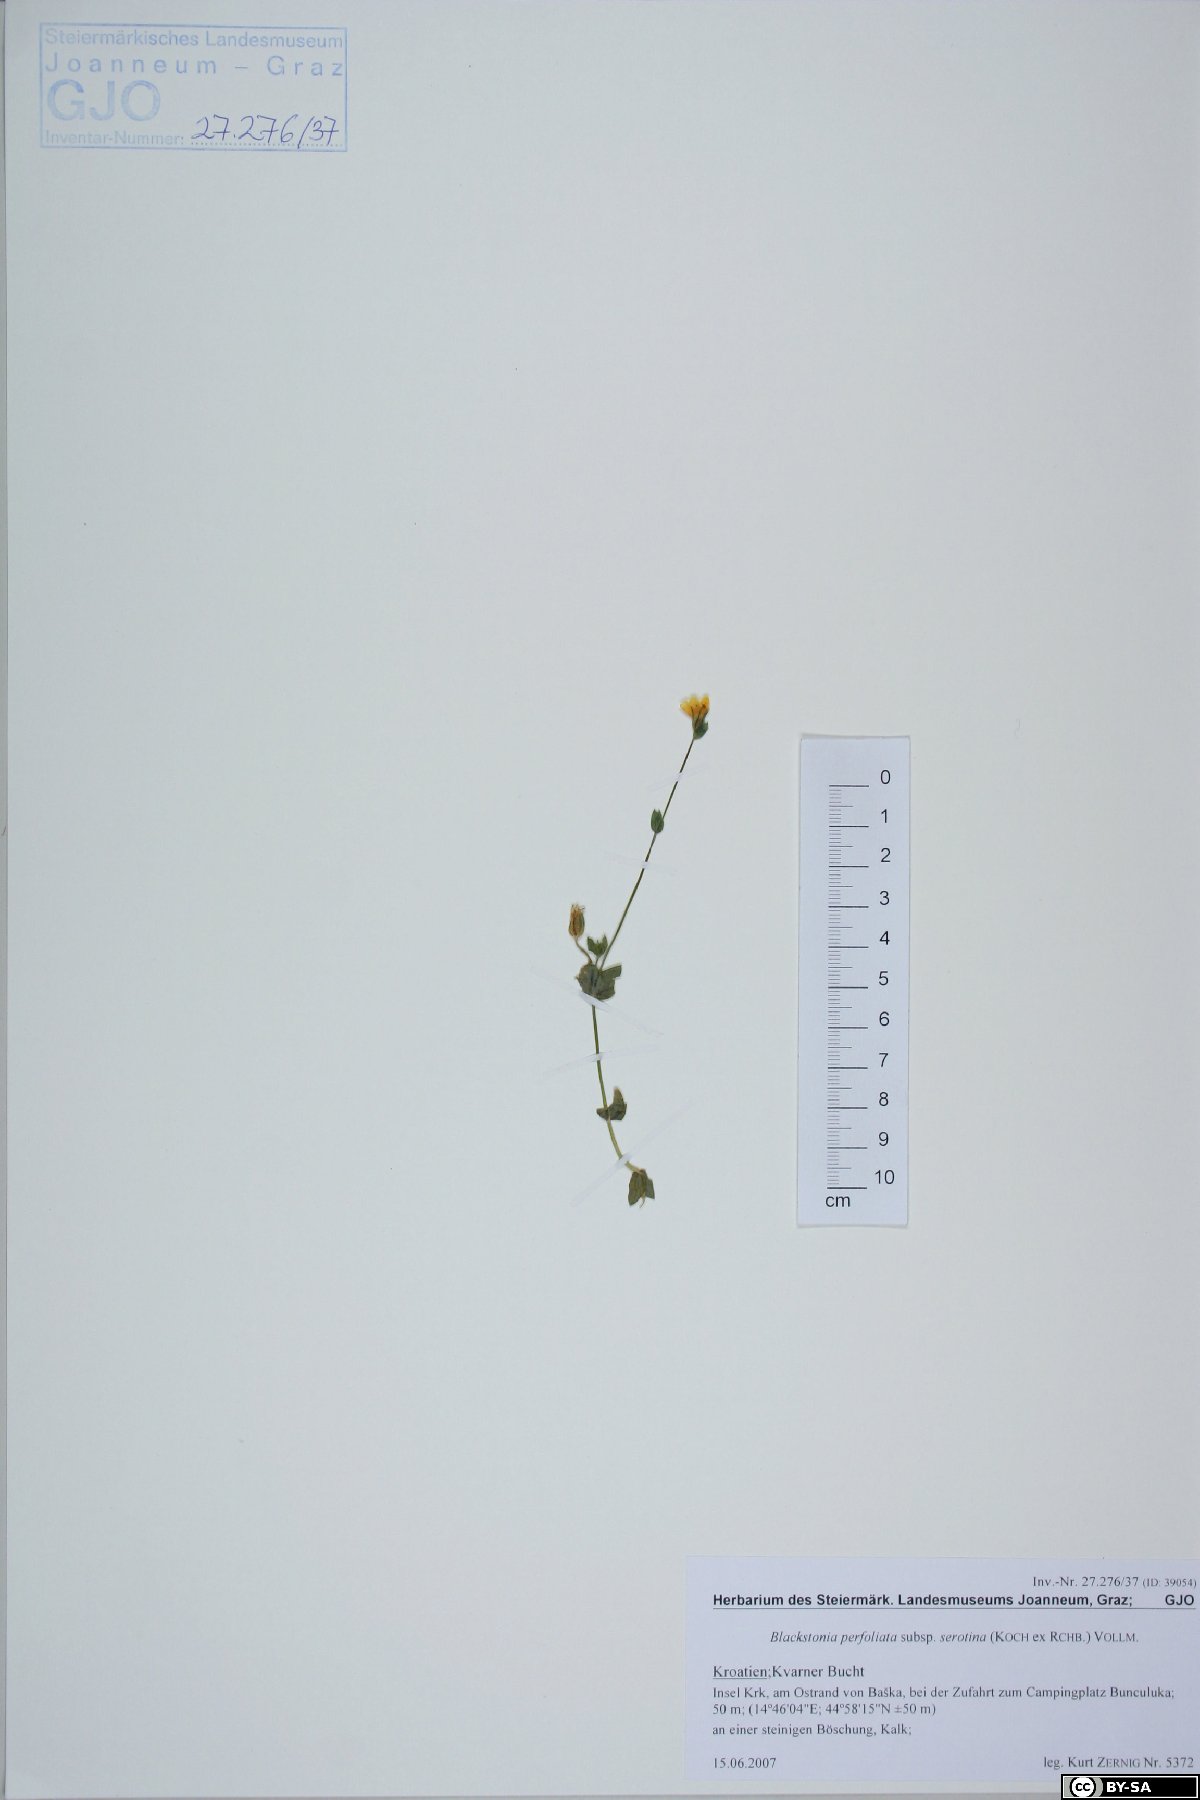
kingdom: Plantae
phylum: Tracheophyta
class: Magnoliopsida
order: Gentianales
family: Gentianaceae
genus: Blackstonia
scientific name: Blackstonia acuminata
